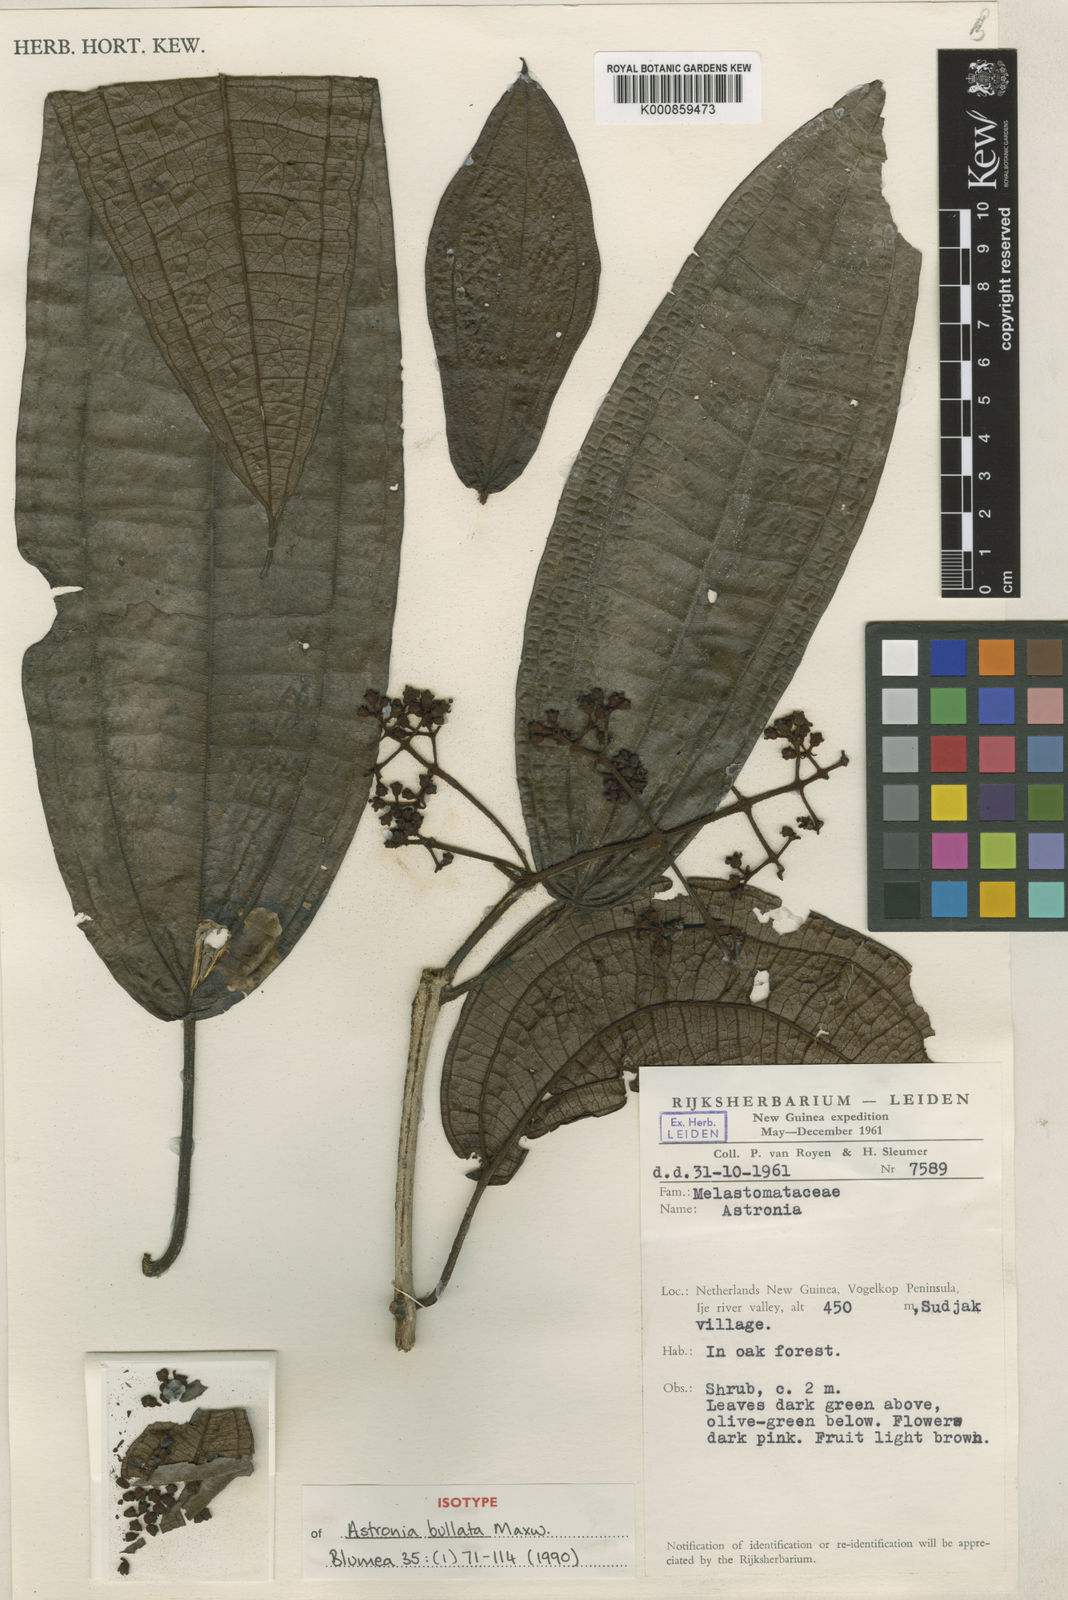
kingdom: Plantae
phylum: Tracheophyta
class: Magnoliopsida
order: Myrtales
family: Melastomataceae
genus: Astronia
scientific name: Astronia bullata
